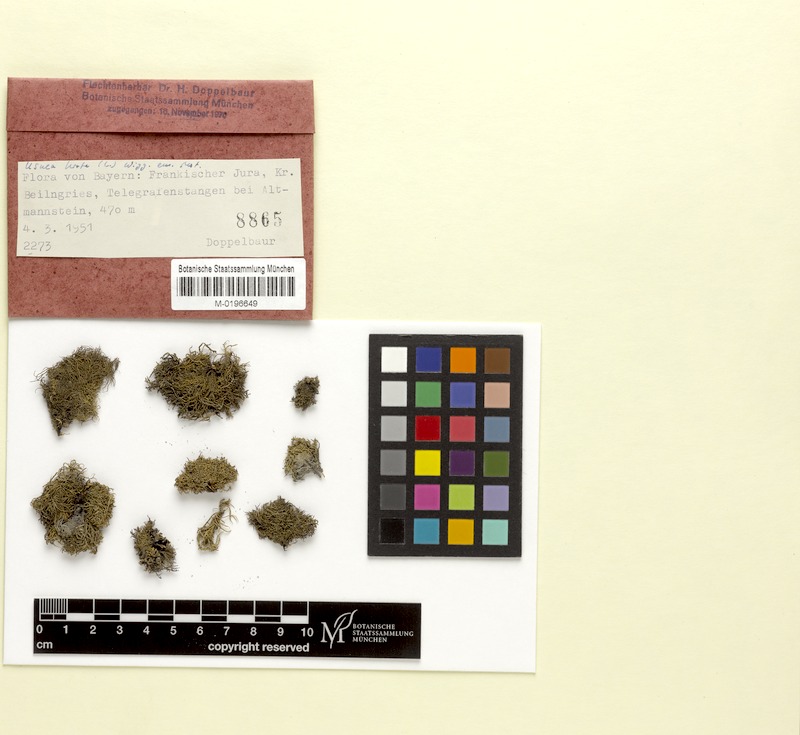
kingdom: Fungi
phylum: Ascomycota
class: Lecanoromycetes
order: Lecanorales
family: Parmeliaceae
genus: Usnea
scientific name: Usnea hirta
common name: Bristly beard lichen
